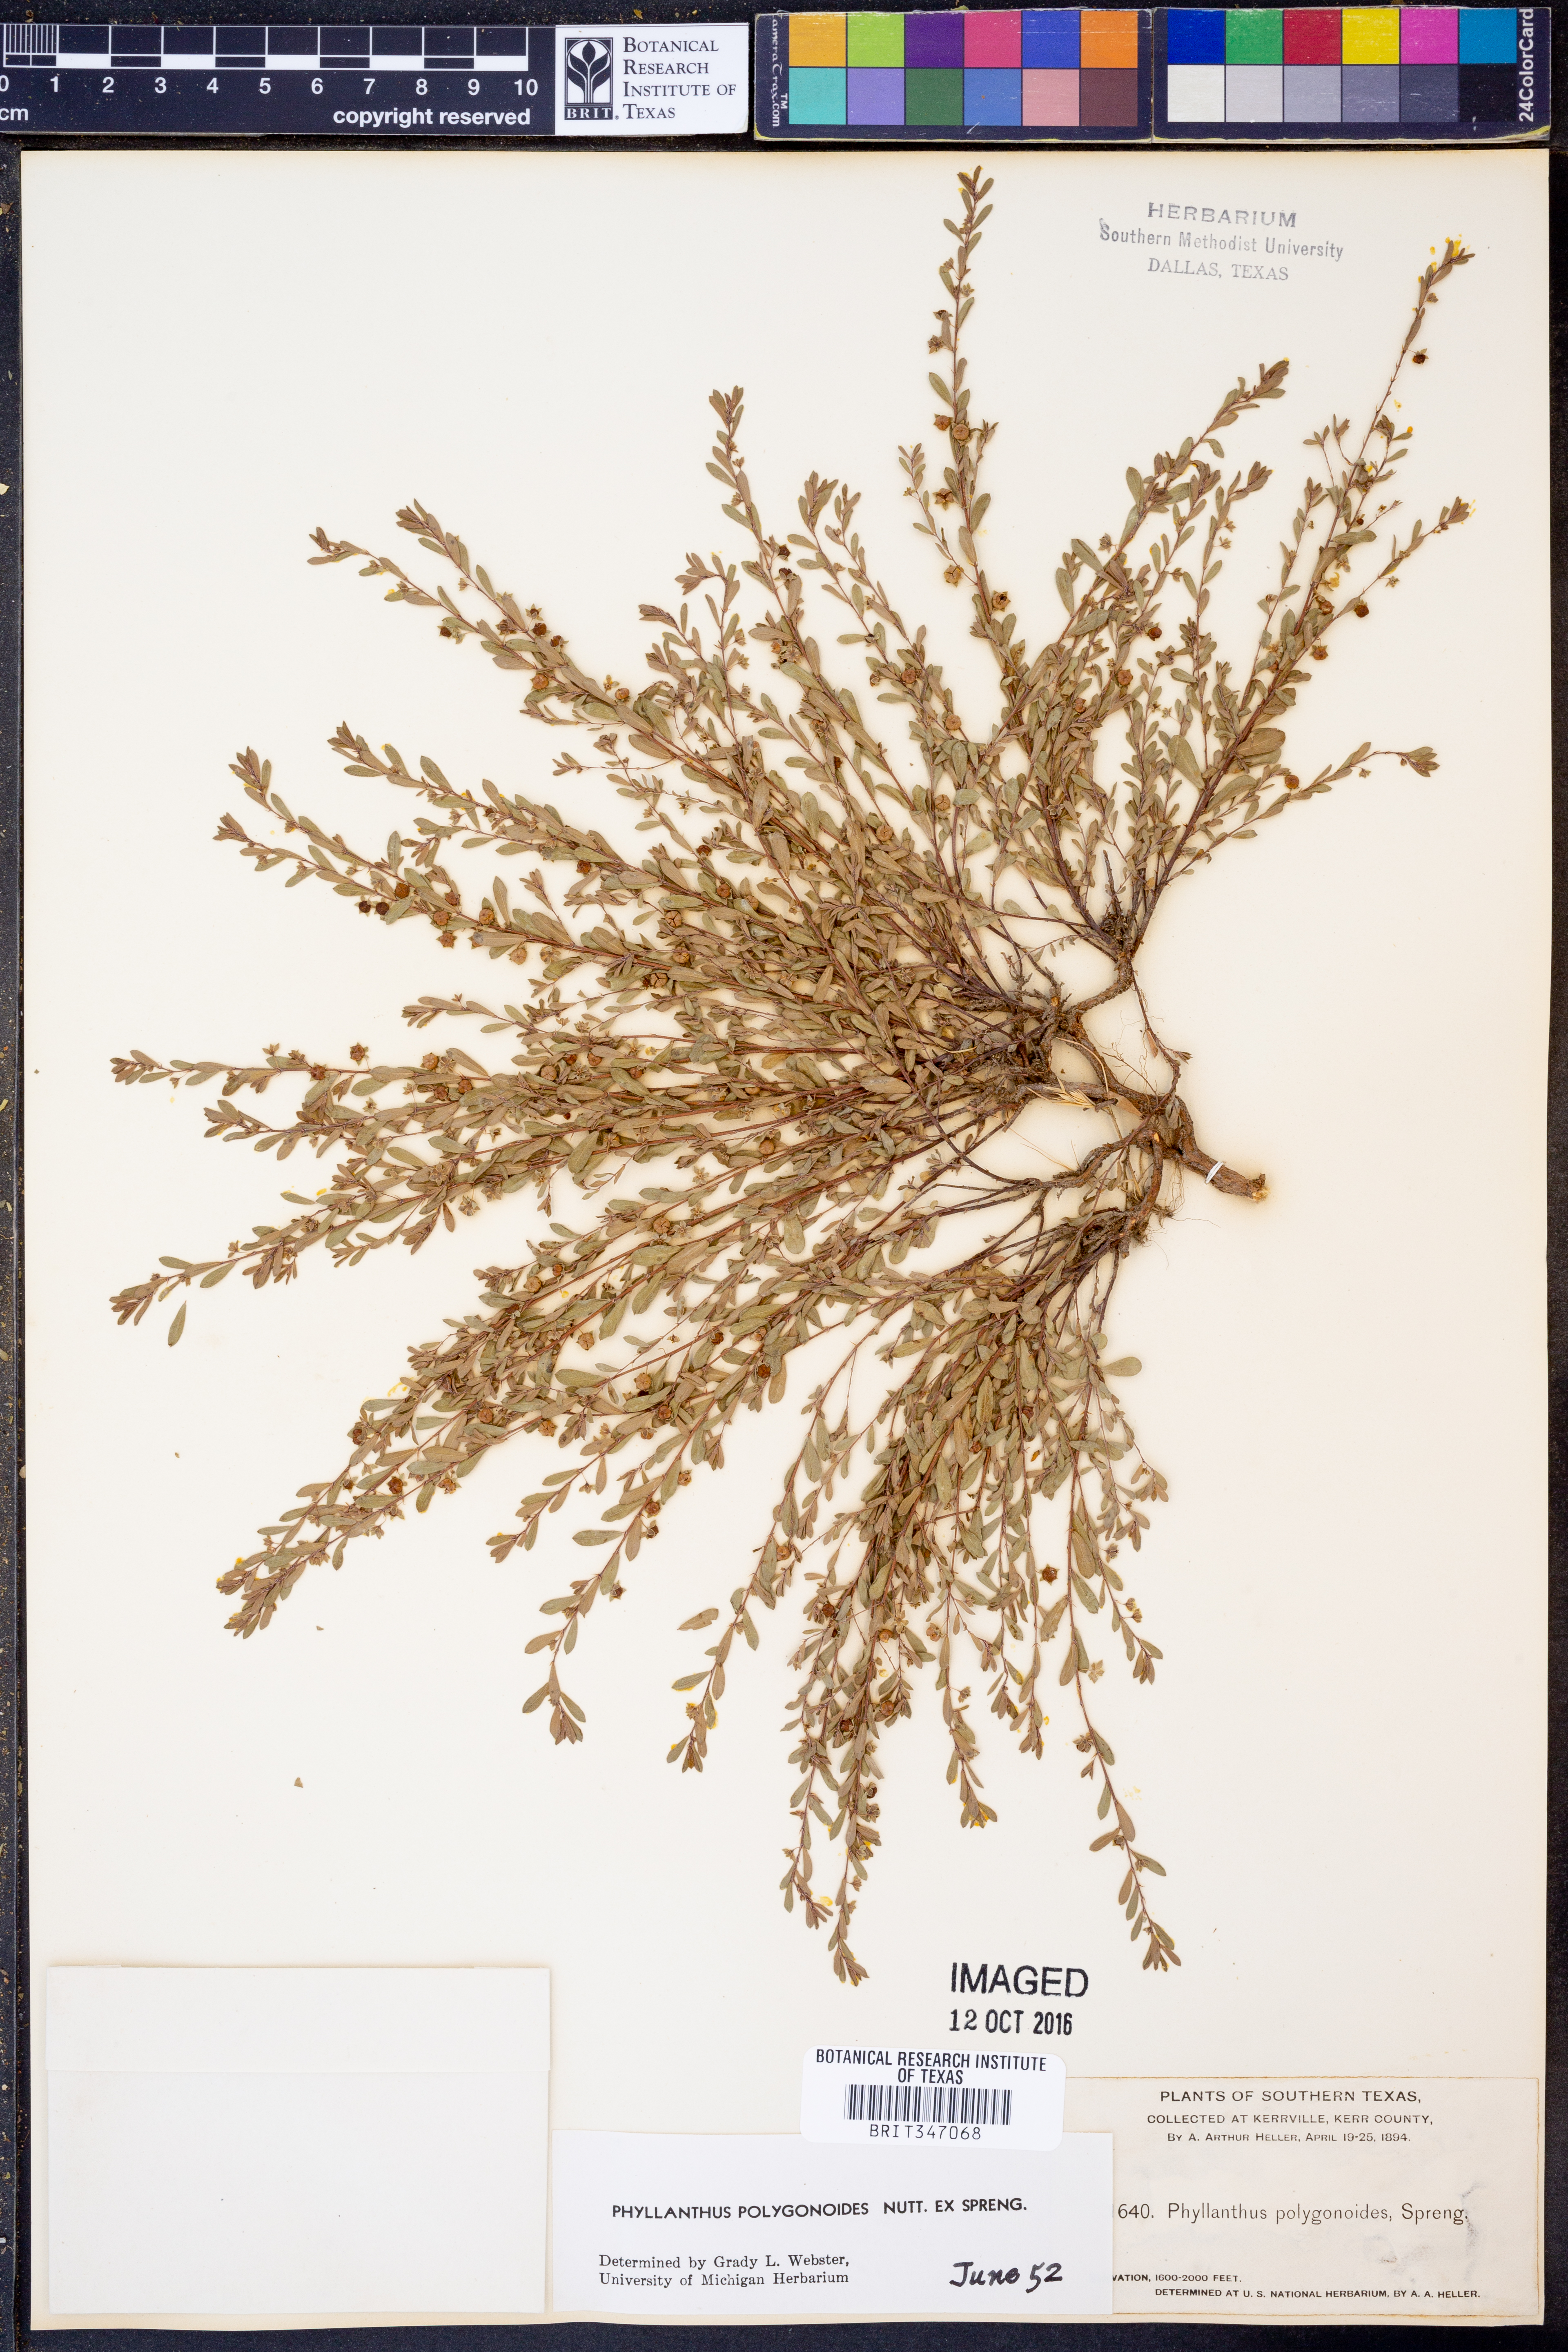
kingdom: Plantae
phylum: Tracheophyta
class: Magnoliopsida
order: Malpighiales
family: Phyllanthaceae
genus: Phyllanthus
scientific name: Phyllanthus polygonoides
